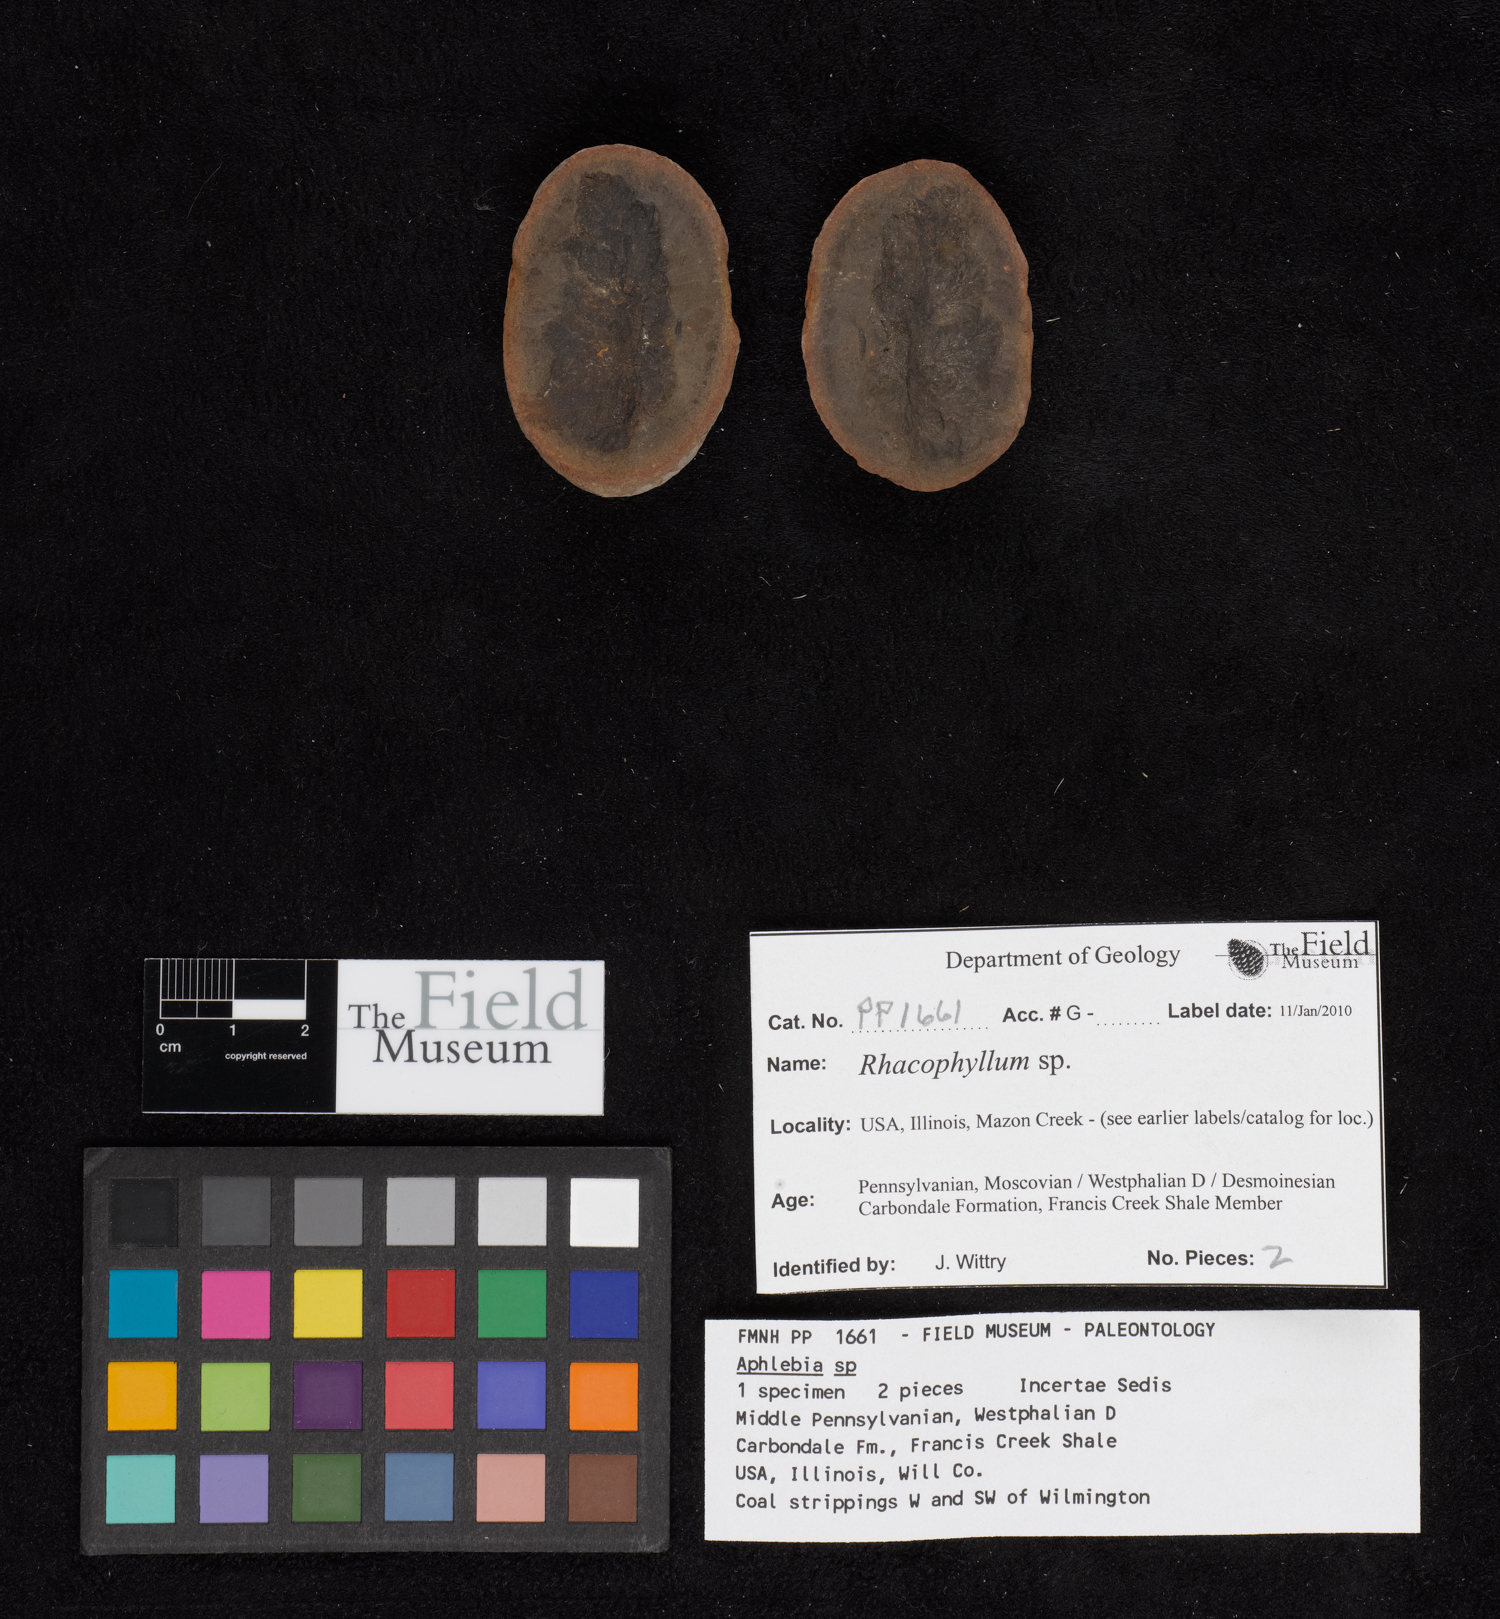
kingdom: Plantae
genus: Rhacophyllum
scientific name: Rhacophyllum
